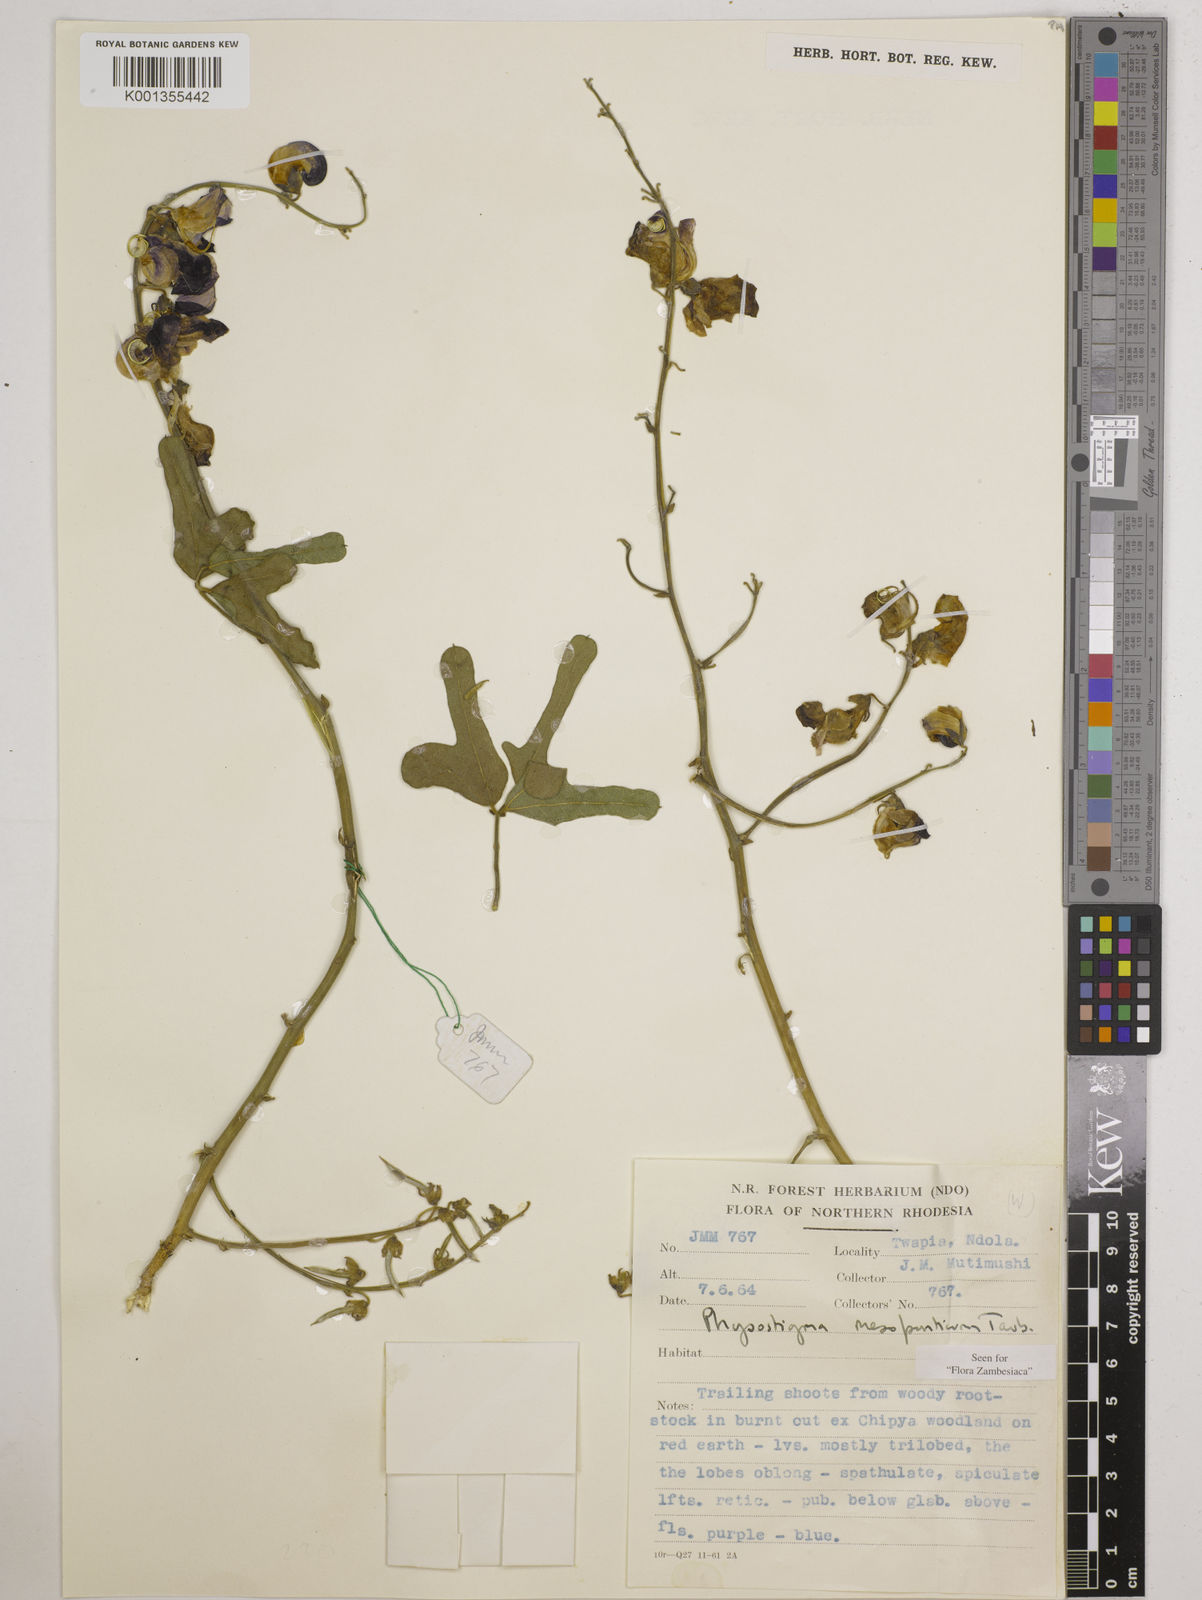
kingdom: Plantae
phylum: Tracheophyta
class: Magnoliopsida
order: Fabales
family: Fabaceae
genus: Physostigma
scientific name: Physostigma mesoponticum
